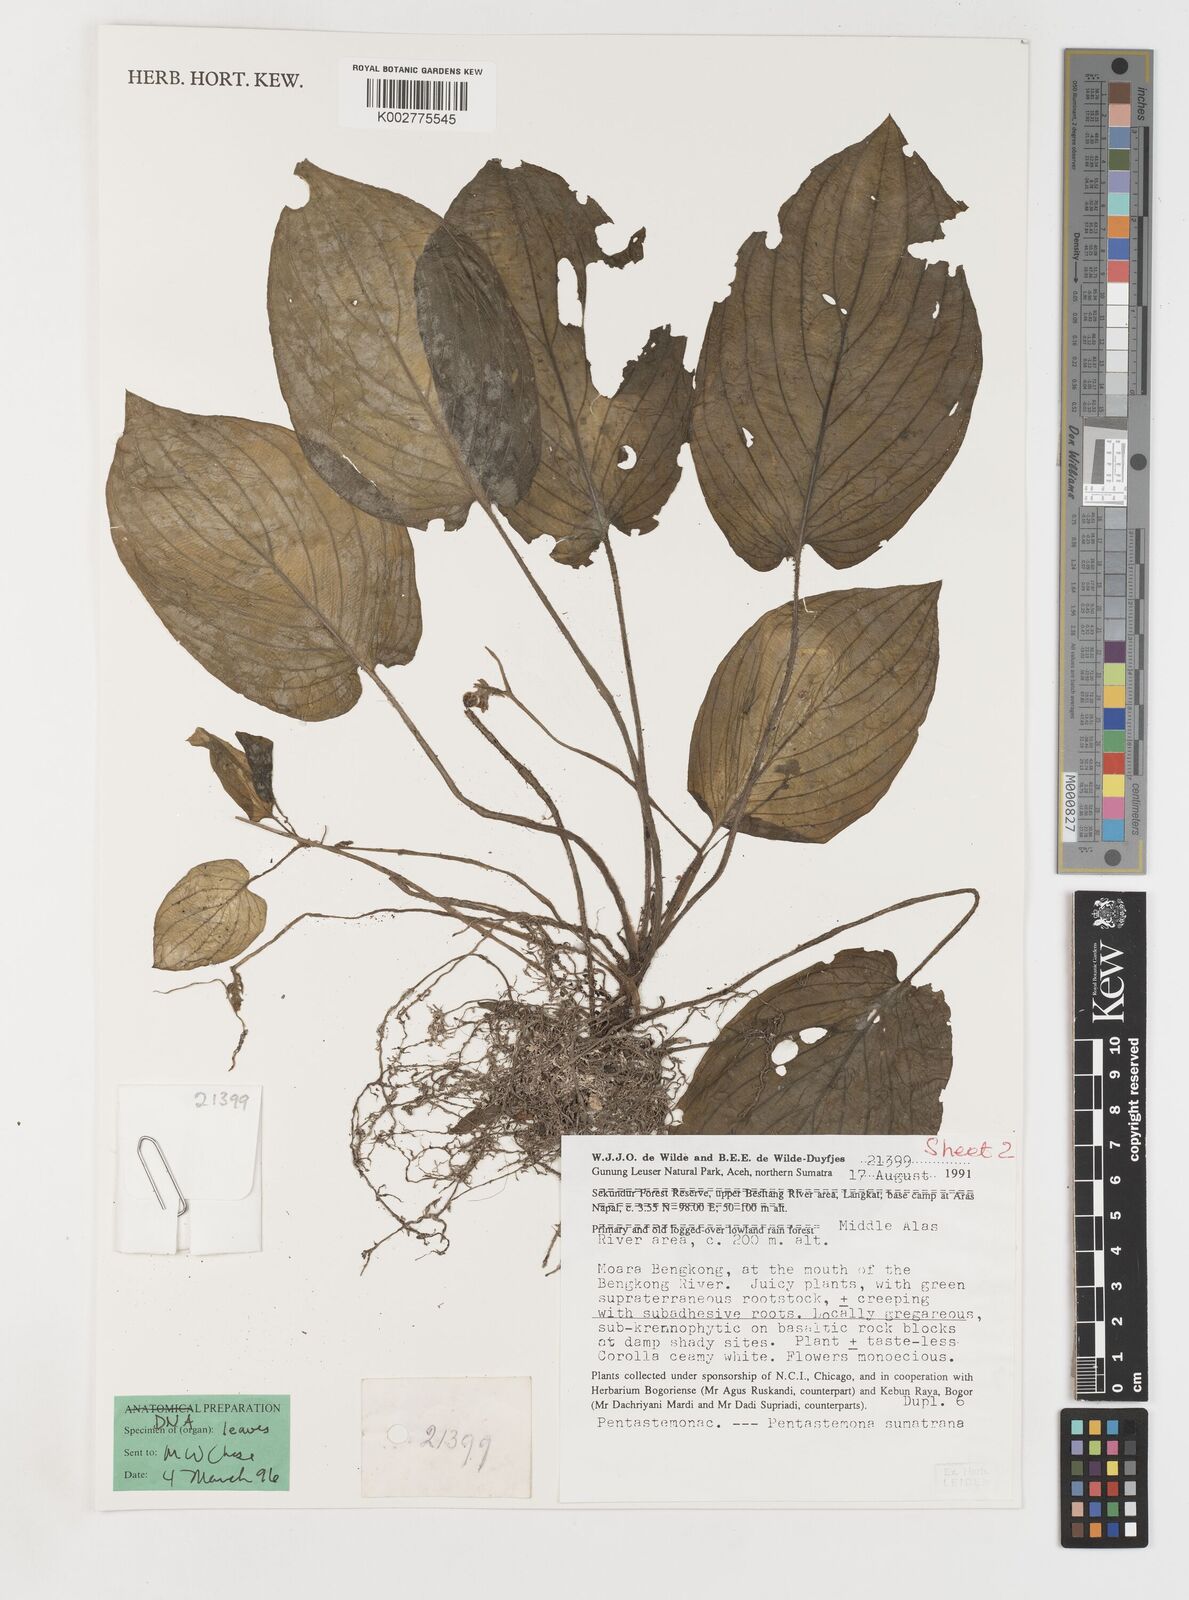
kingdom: Plantae
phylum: Tracheophyta
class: Liliopsida
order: Pandanales
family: Stemonaceae
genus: Pentastemona
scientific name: Pentastemona sumatrana
